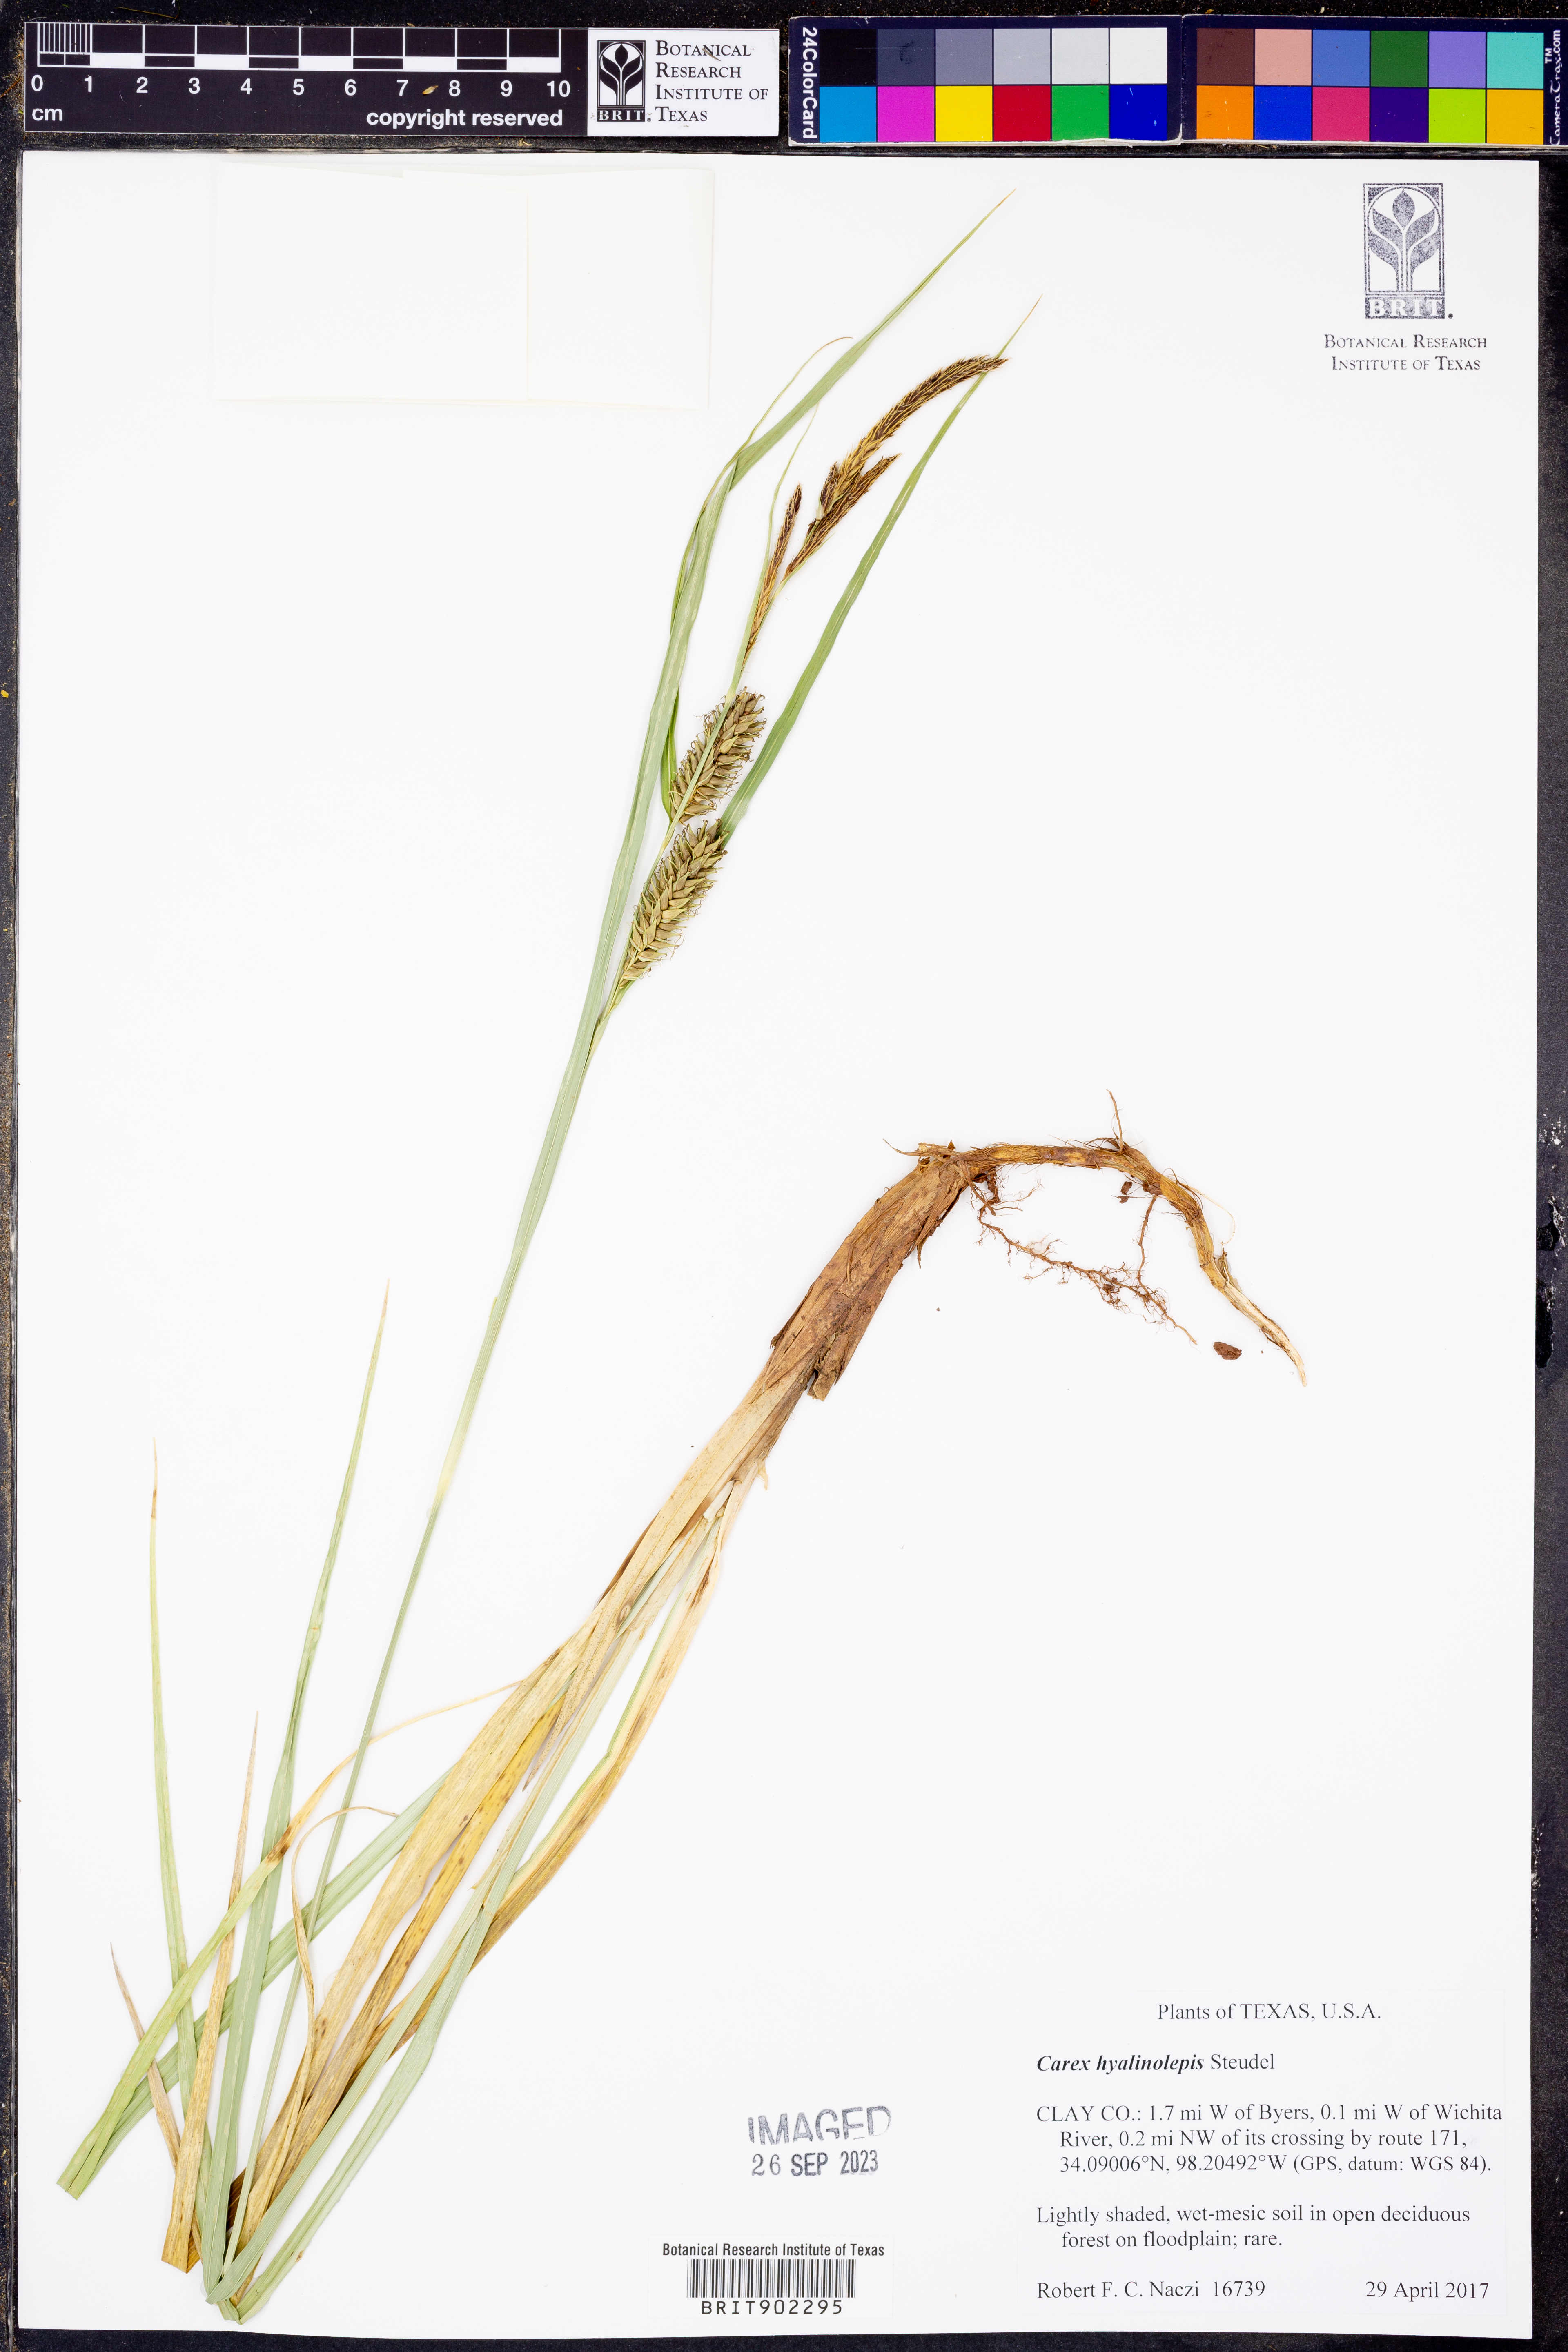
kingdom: Plantae
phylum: Tracheophyta
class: Liliopsida
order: Poales
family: Cyperaceae
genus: Carex
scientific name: Carex hyalinolepis
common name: Shoreline sedge
